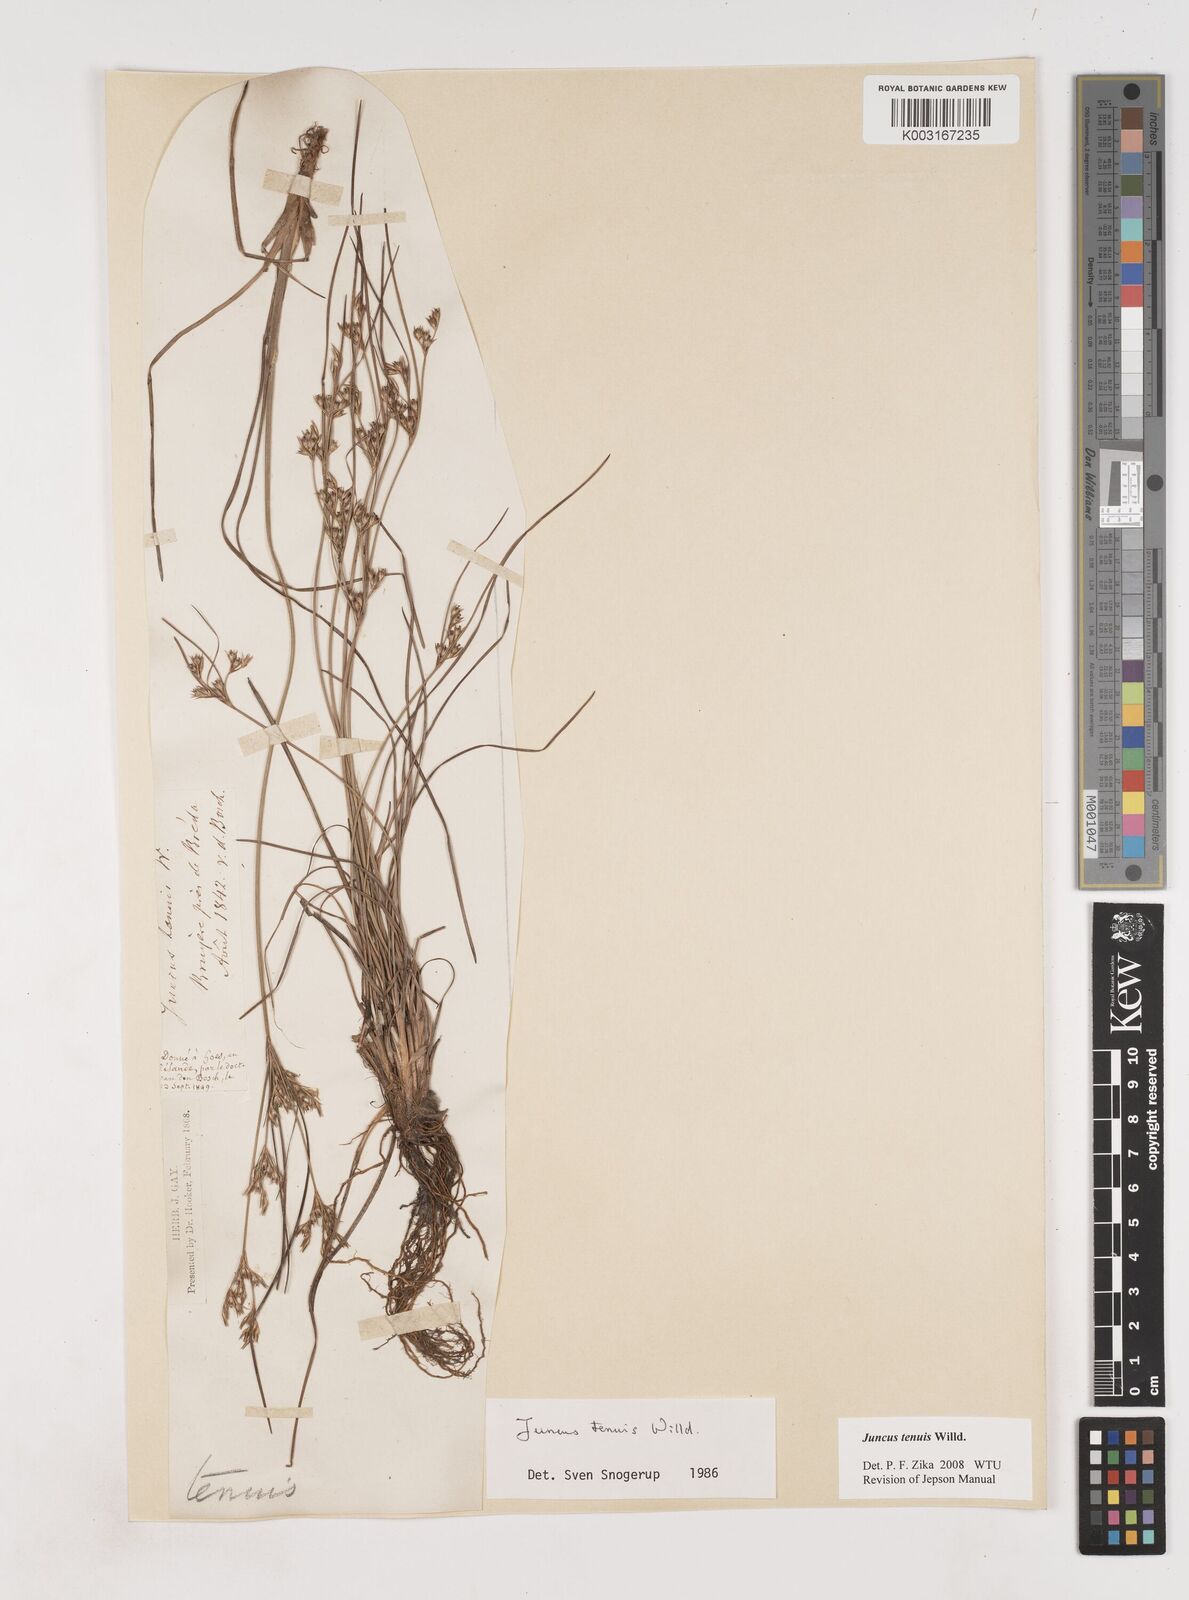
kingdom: Plantae
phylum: Tracheophyta
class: Liliopsida
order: Poales
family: Juncaceae
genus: Juncus
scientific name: Juncus tenuis
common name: Slender rush
